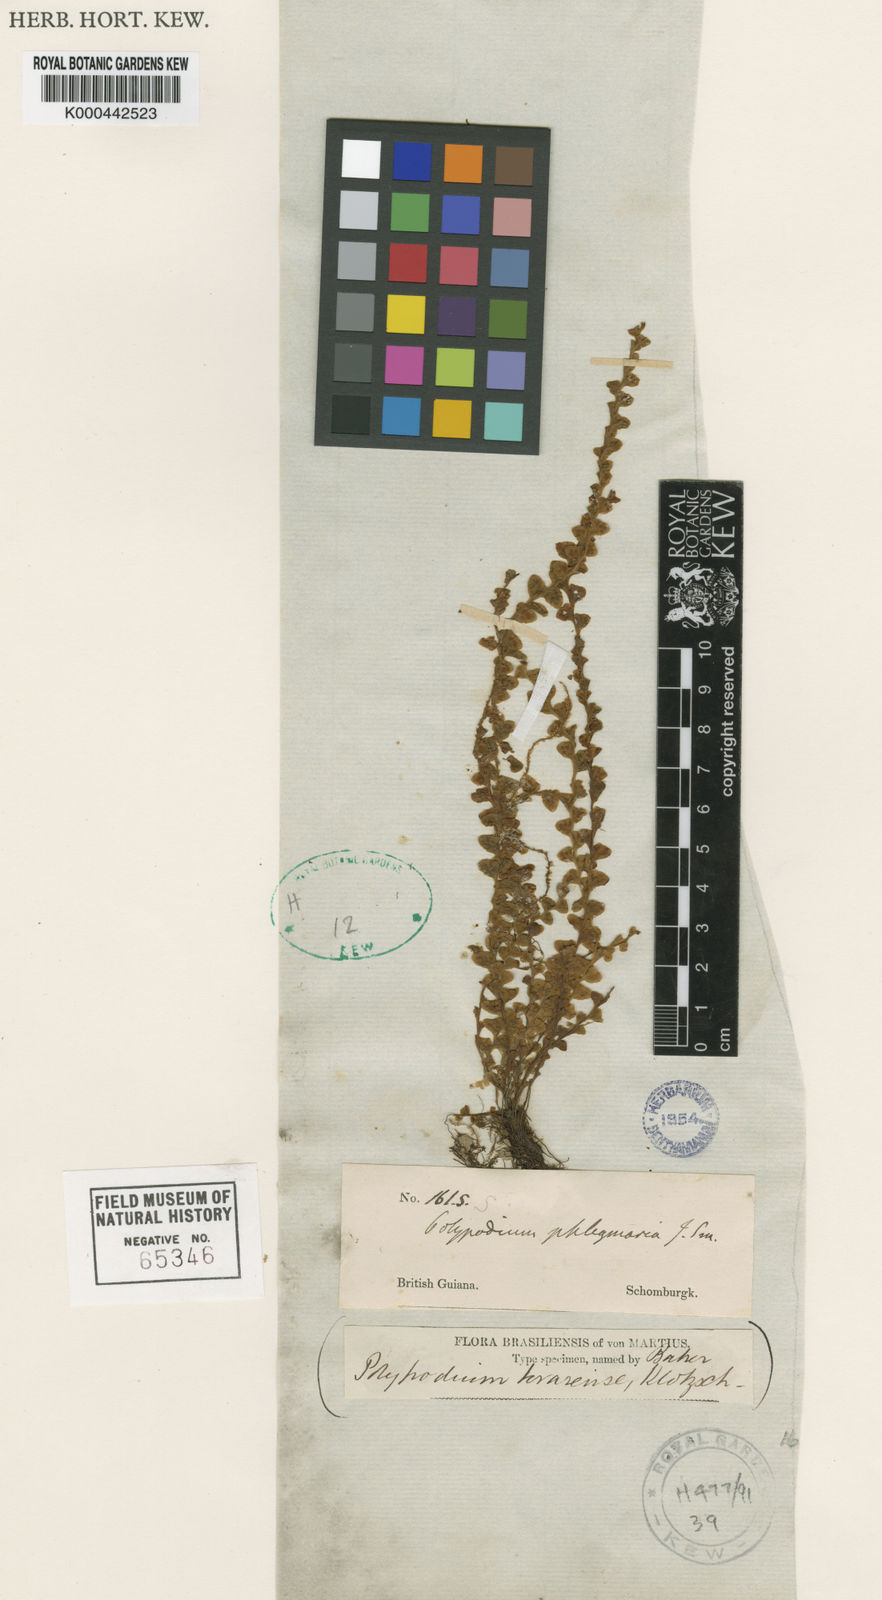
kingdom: Plantae
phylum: Tracheophyta
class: Polypodiopsida
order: Polypodiales
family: Polypodiaceae
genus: Lellingeria
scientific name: Lellingeria phlegmaria
